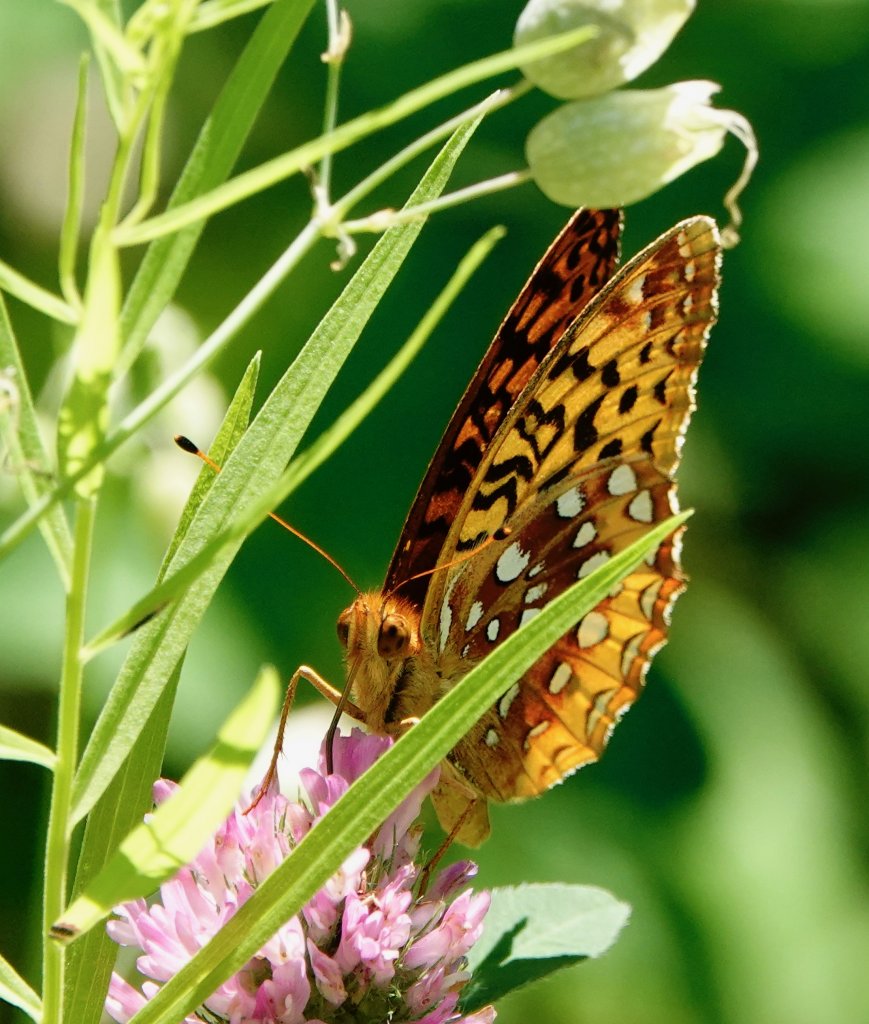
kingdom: Animalia
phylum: Arthropoda
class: Insecta
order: Lepidoptera
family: Nymphalidae
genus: Speyeria
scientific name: Speyeria cybele
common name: Great Spangled Fritillary
